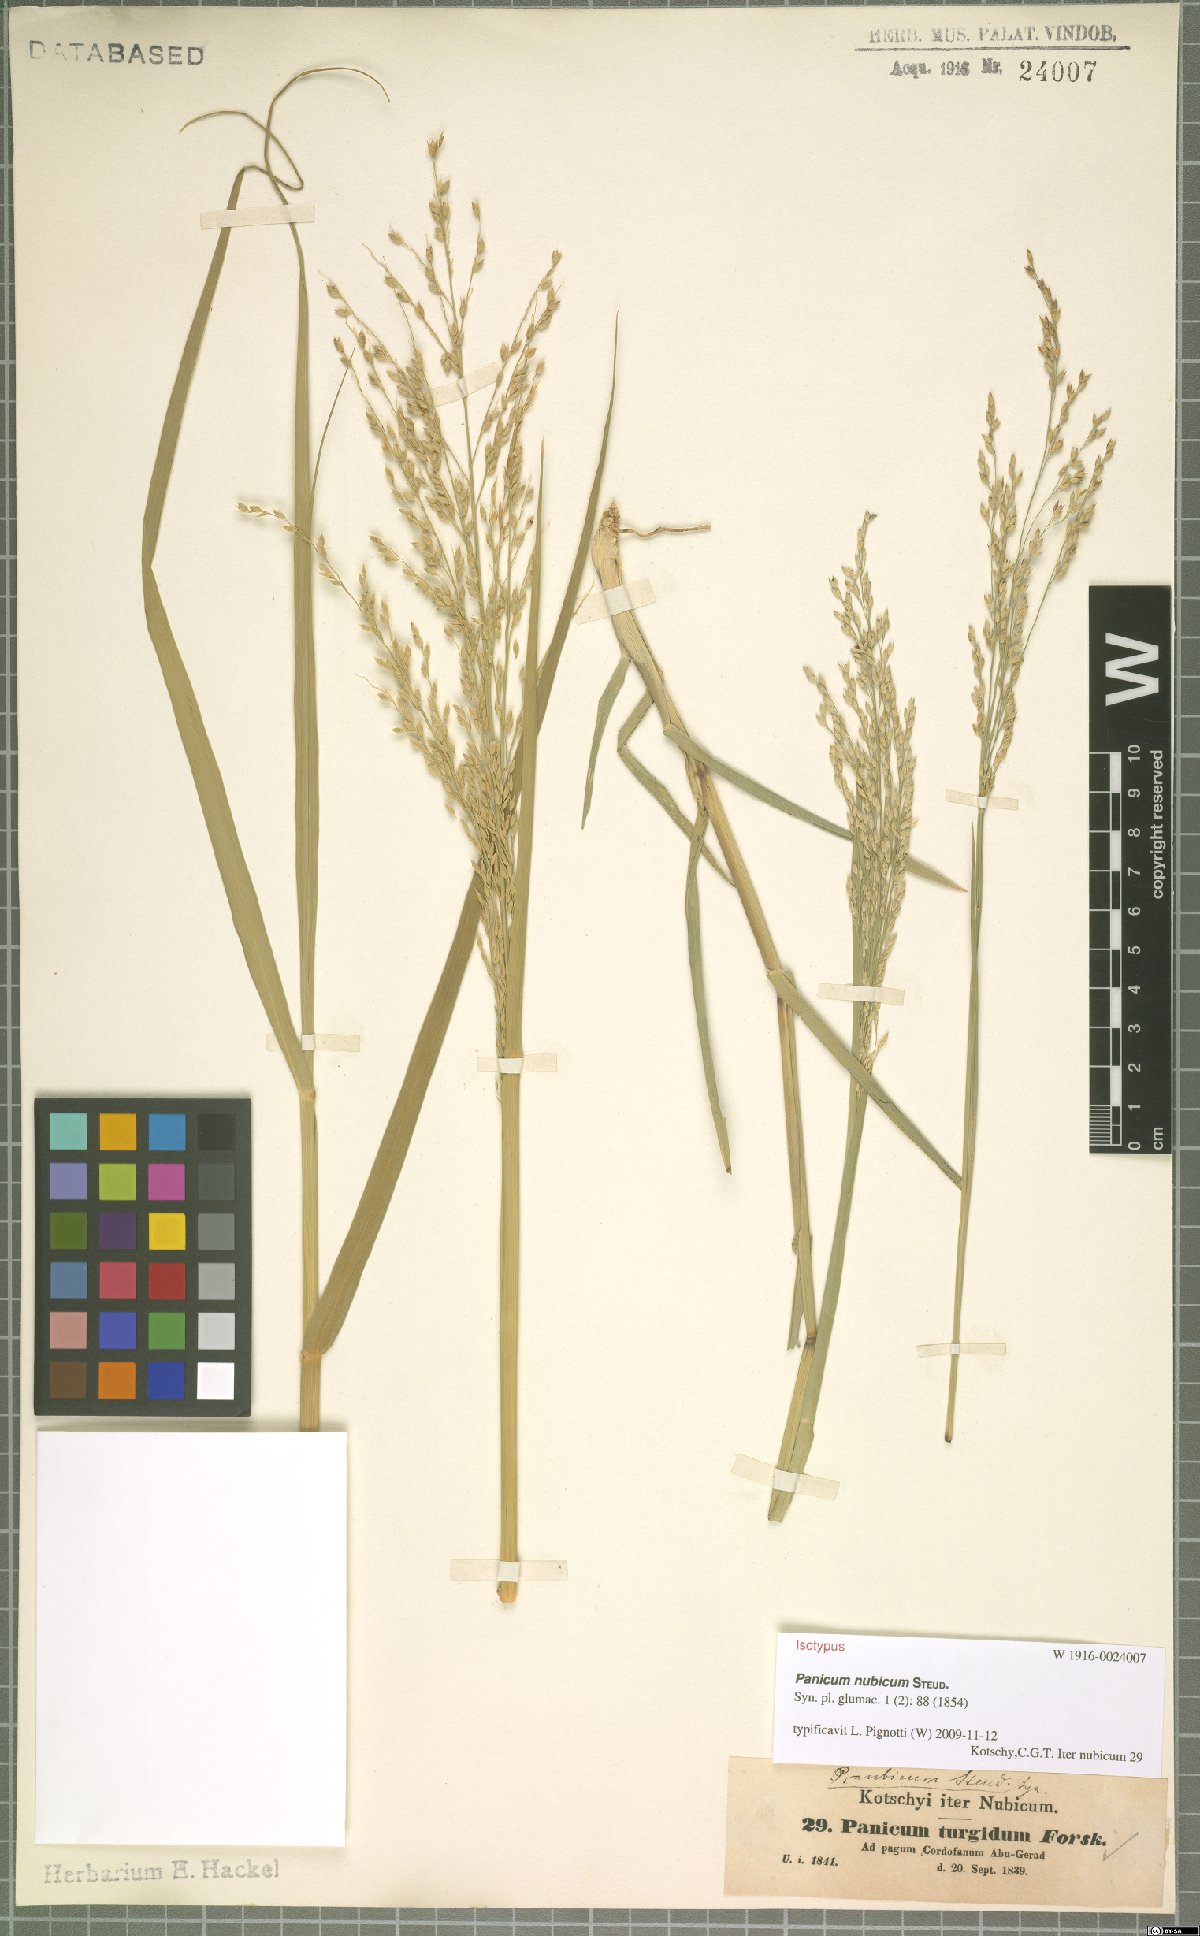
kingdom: Plantae
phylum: Tracheophyta
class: Liliopsida
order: Poales
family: Poaceae
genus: Panicum
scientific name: Panicum nubicum
